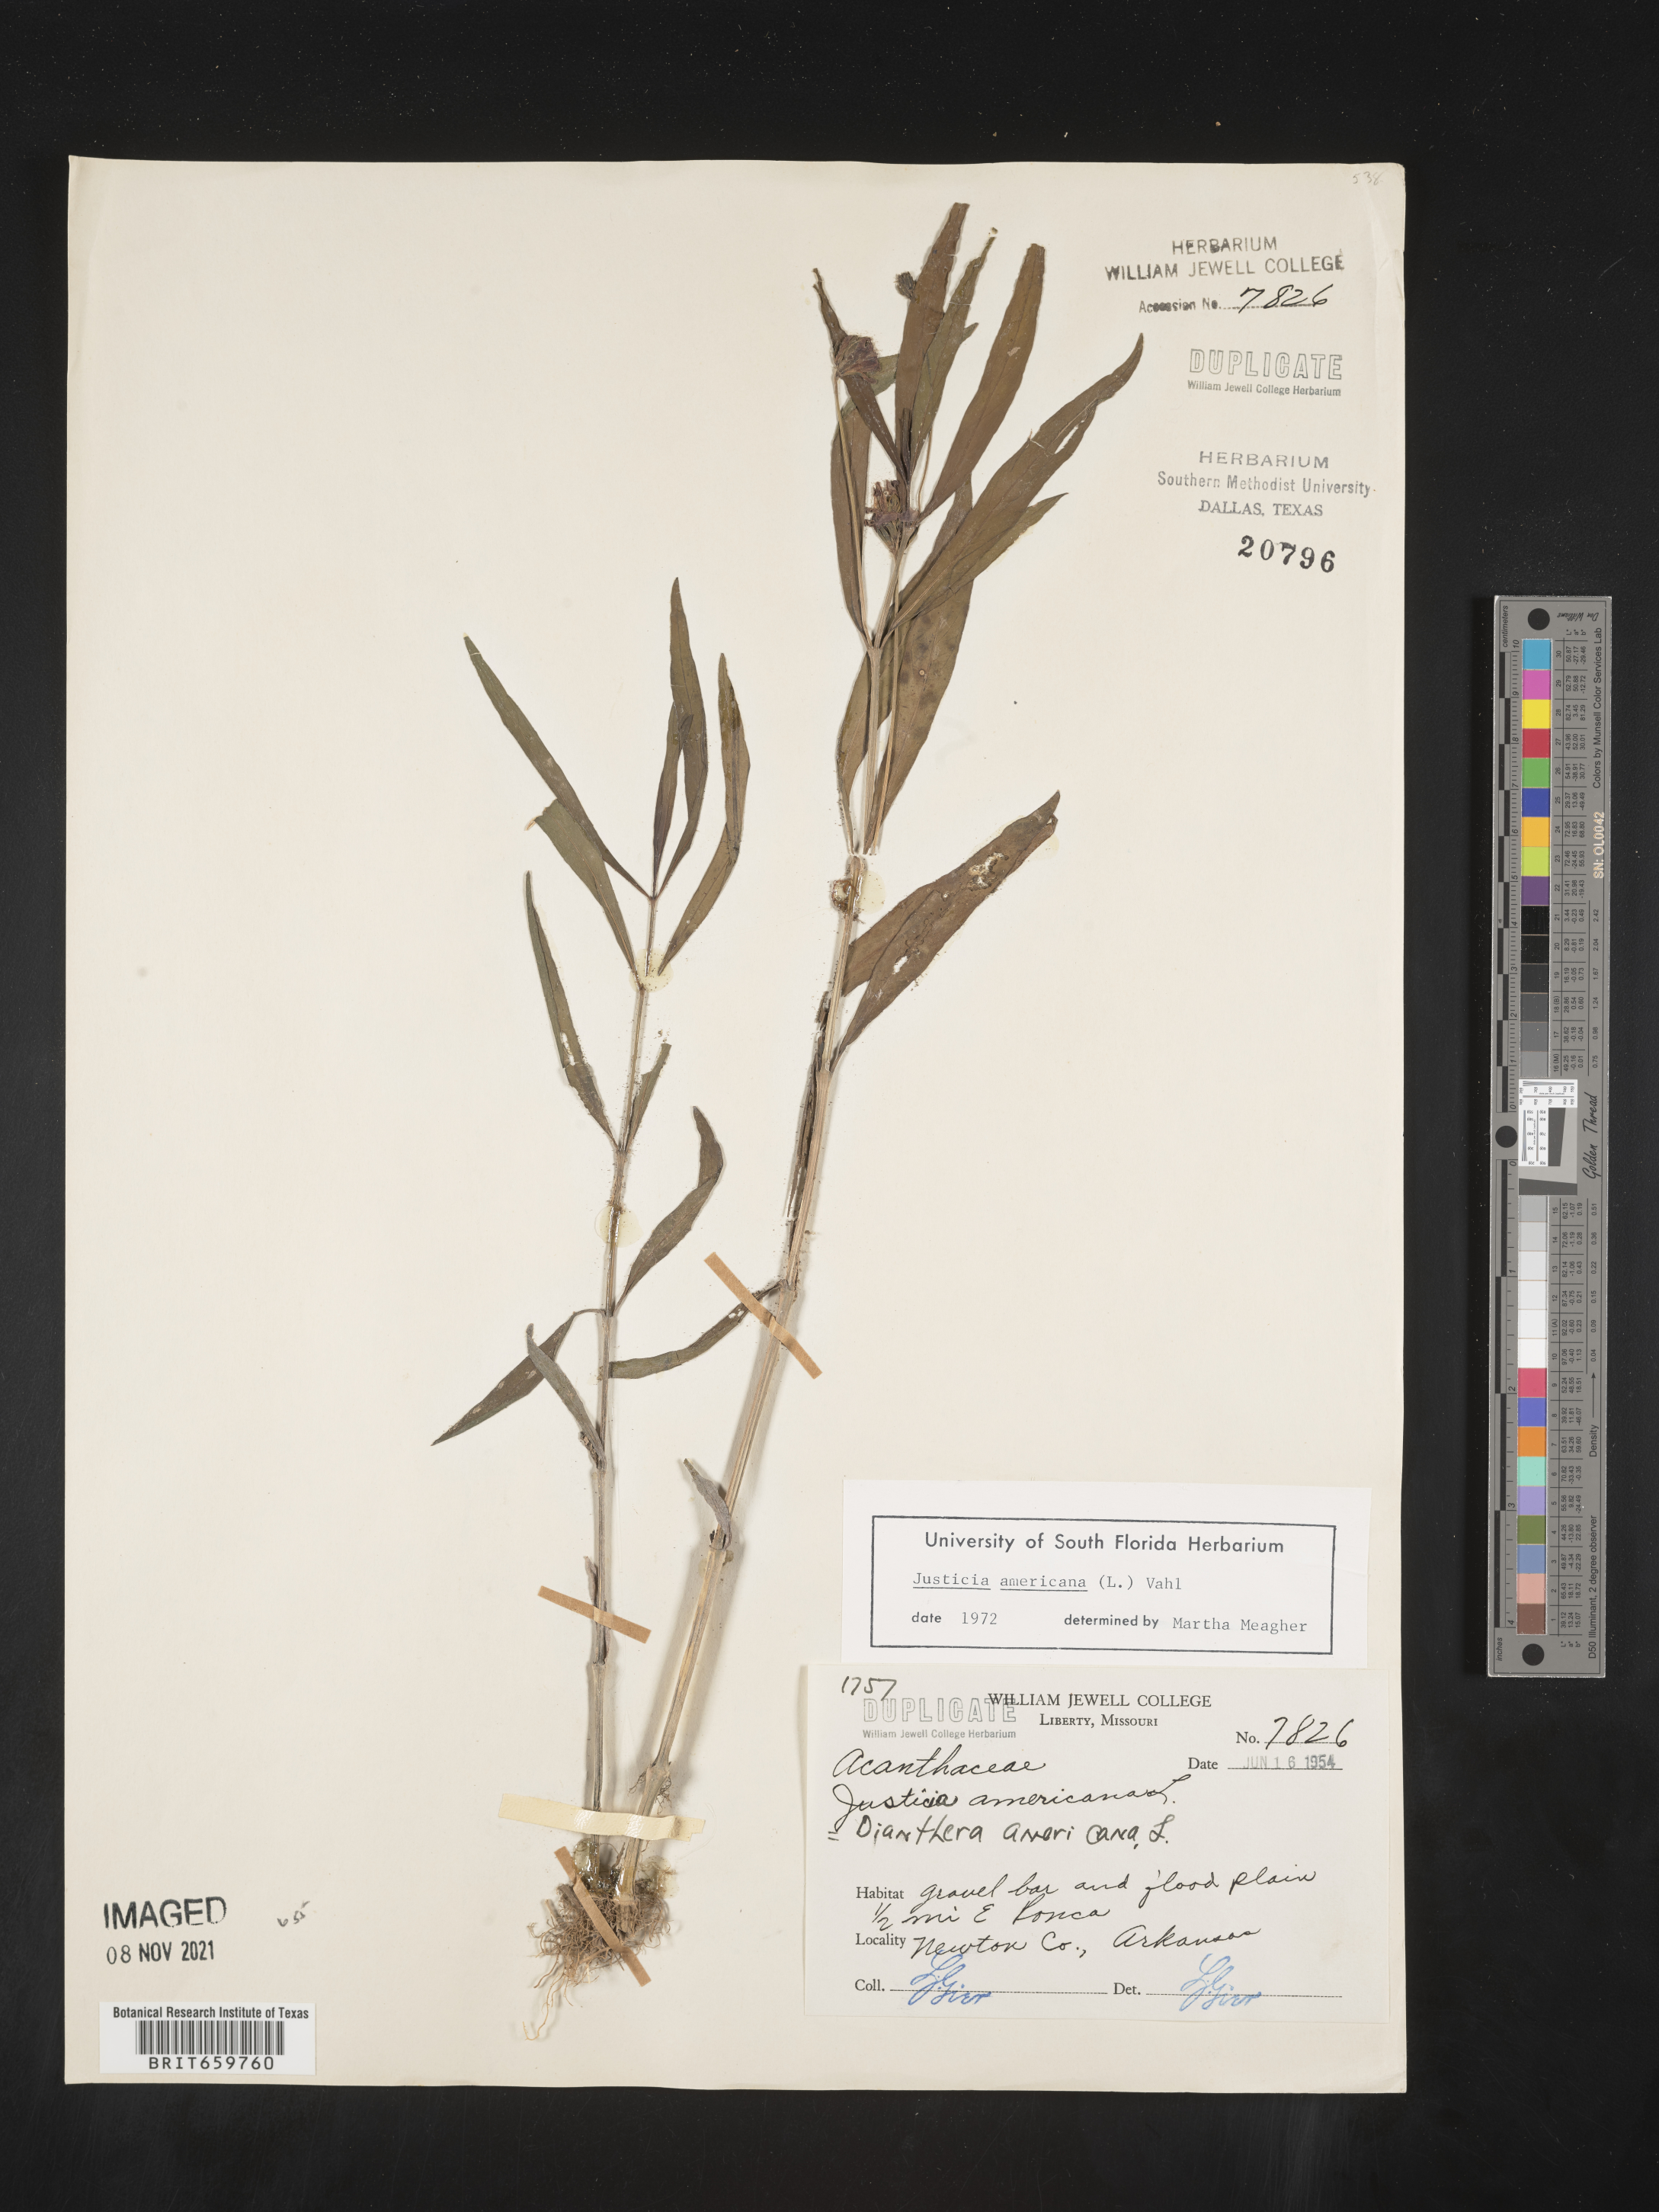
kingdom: Plantae
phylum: Tracheophyta
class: Magnoliopsida
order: Lamiales
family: Acanthaceae
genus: Dianthera
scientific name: Dianthera americana
